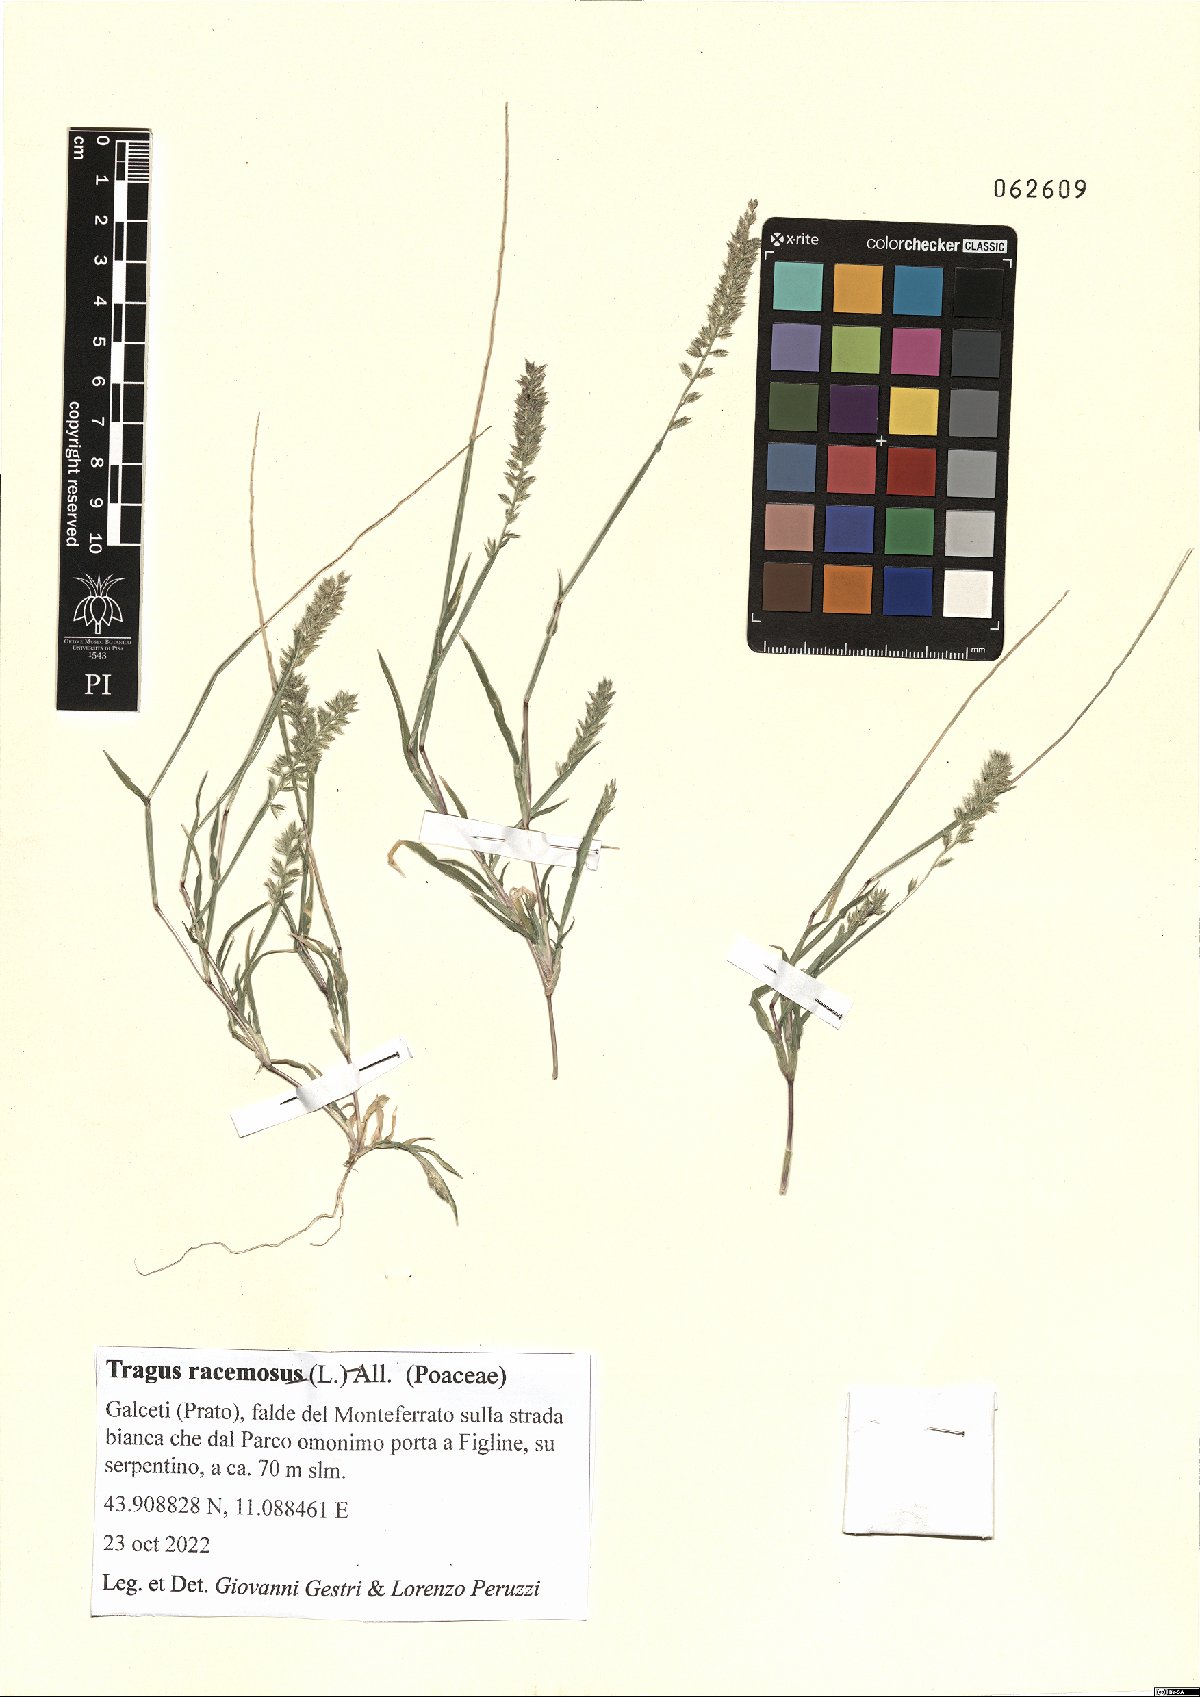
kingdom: Plantae
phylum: Tracheophyta
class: Liliopsida
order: Poales
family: Poaceae
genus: Tragus
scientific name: Tragus racemosus
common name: European bur-grass
